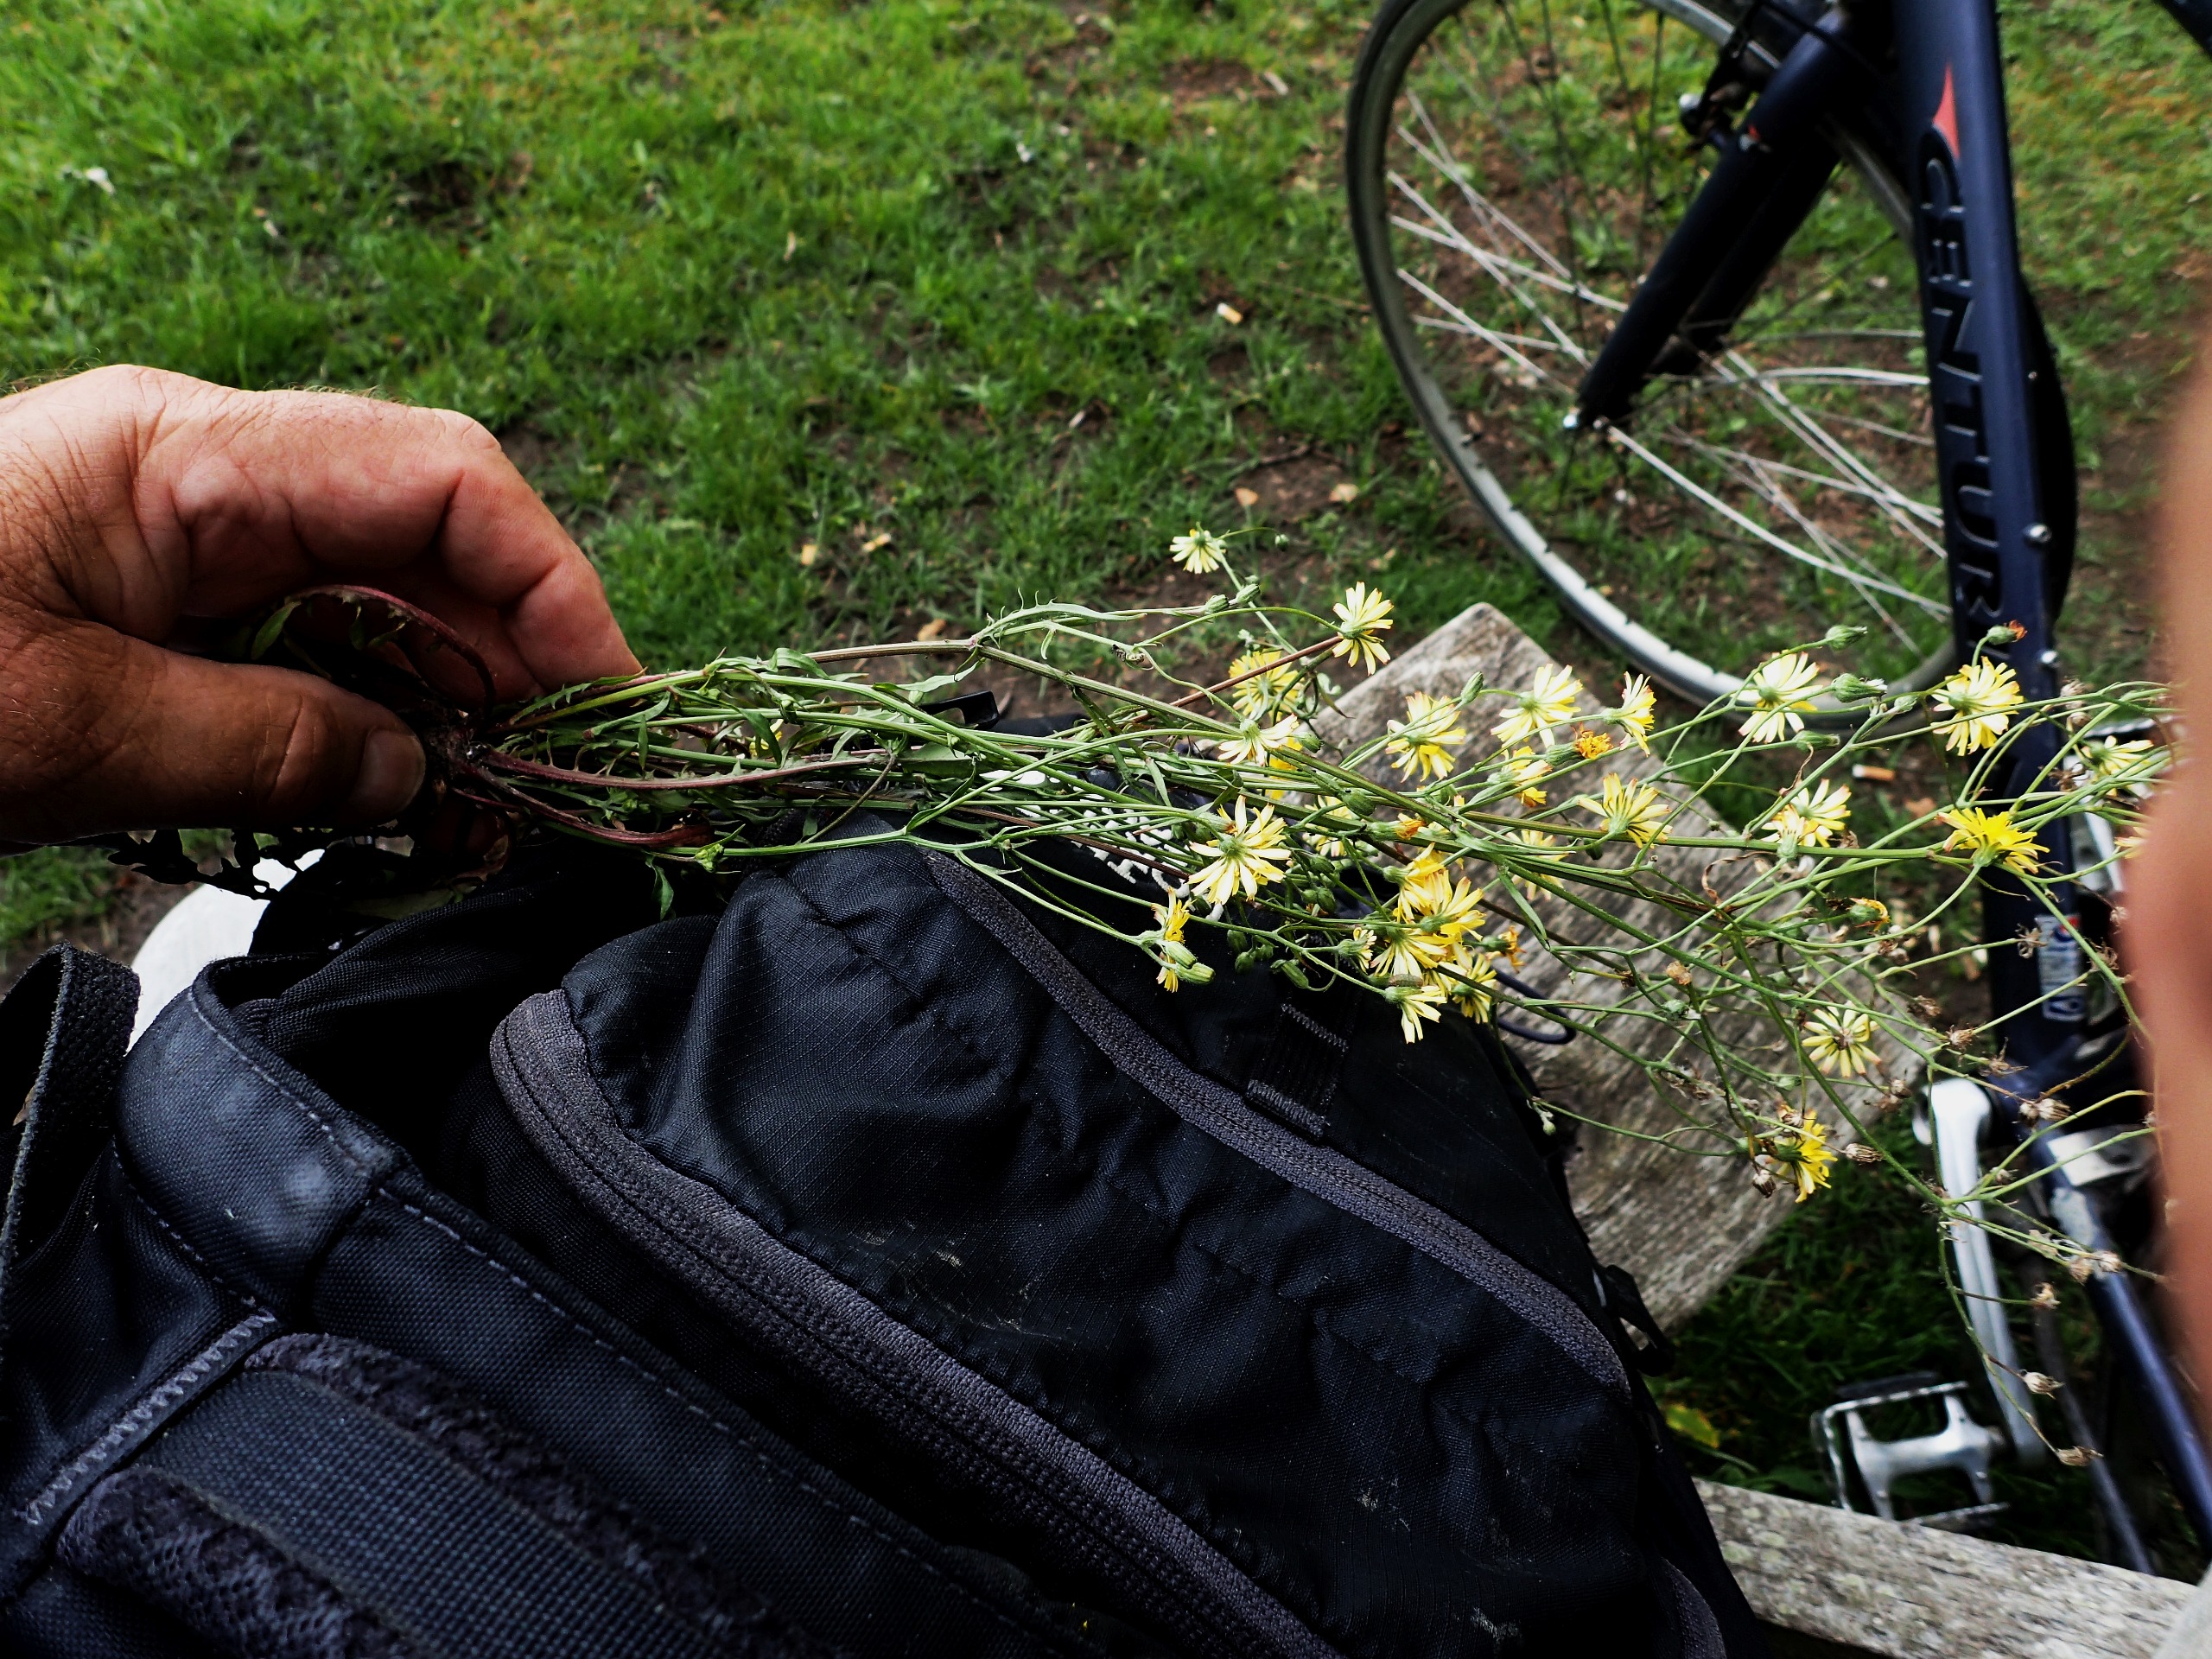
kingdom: Plantae
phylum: Tracheophyta
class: Magnoliopsida
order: Asterales
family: Asteraceae
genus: Crepis
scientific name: Crepis capillaris
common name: Grøn høgeskæg
